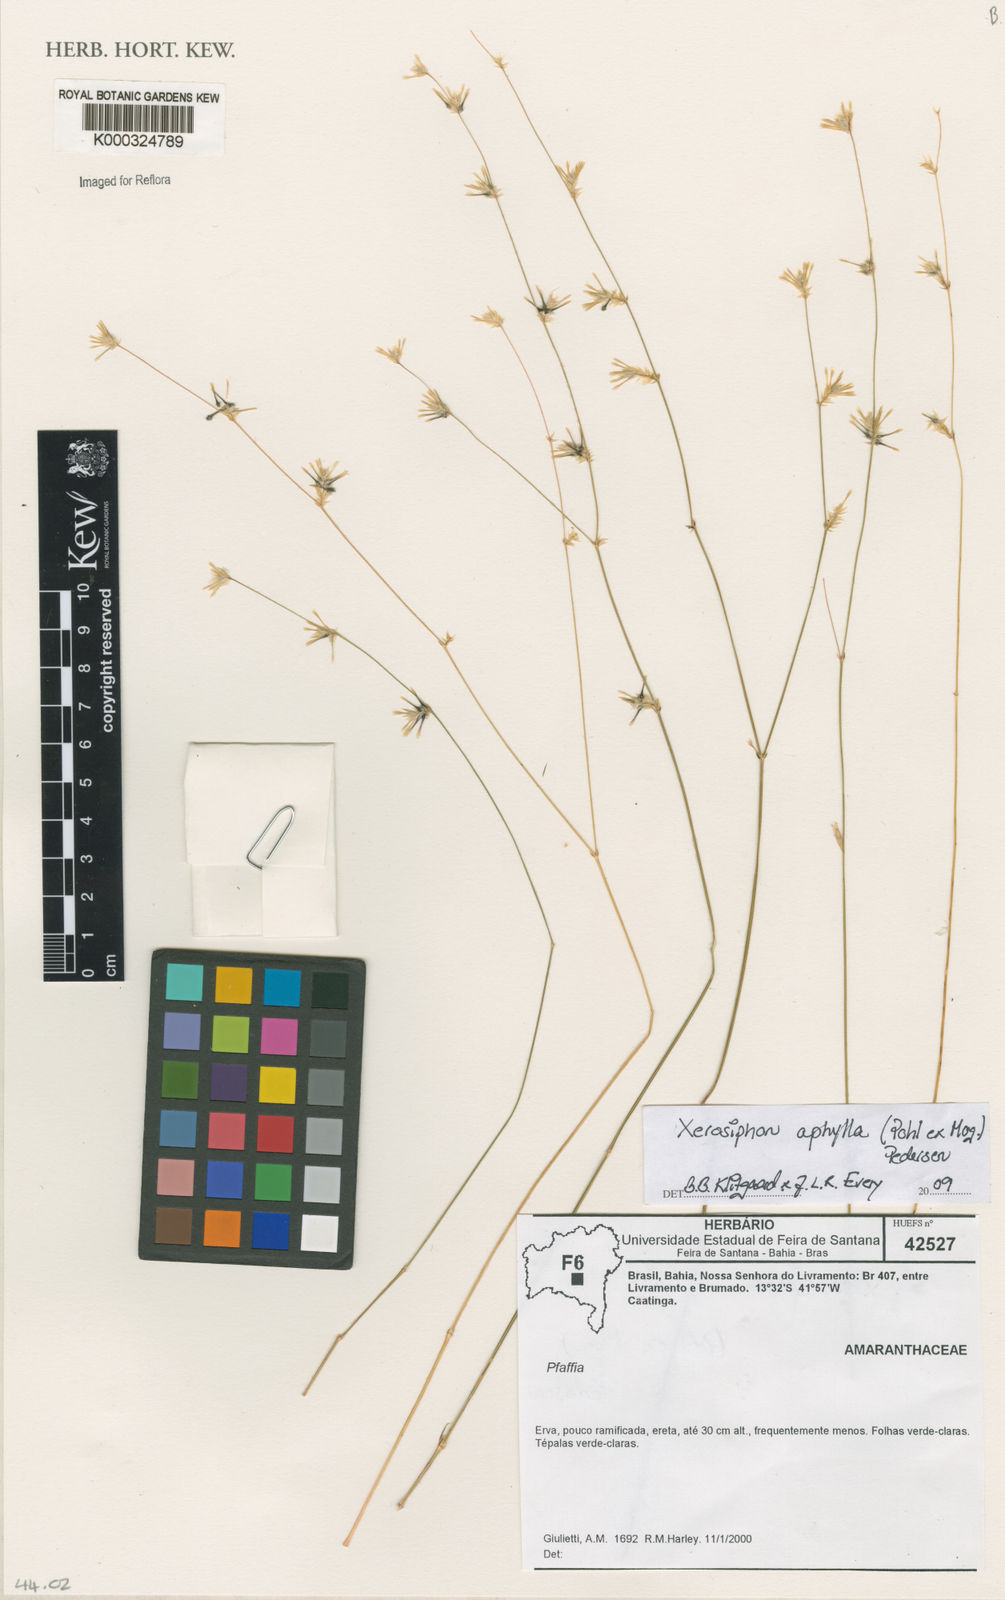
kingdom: Plantae
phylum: Tracheophyta
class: Magnoliopsida
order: Caryophyllales
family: Amaranthaceae
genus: Gomphrena
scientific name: Gomphrena aphylla
